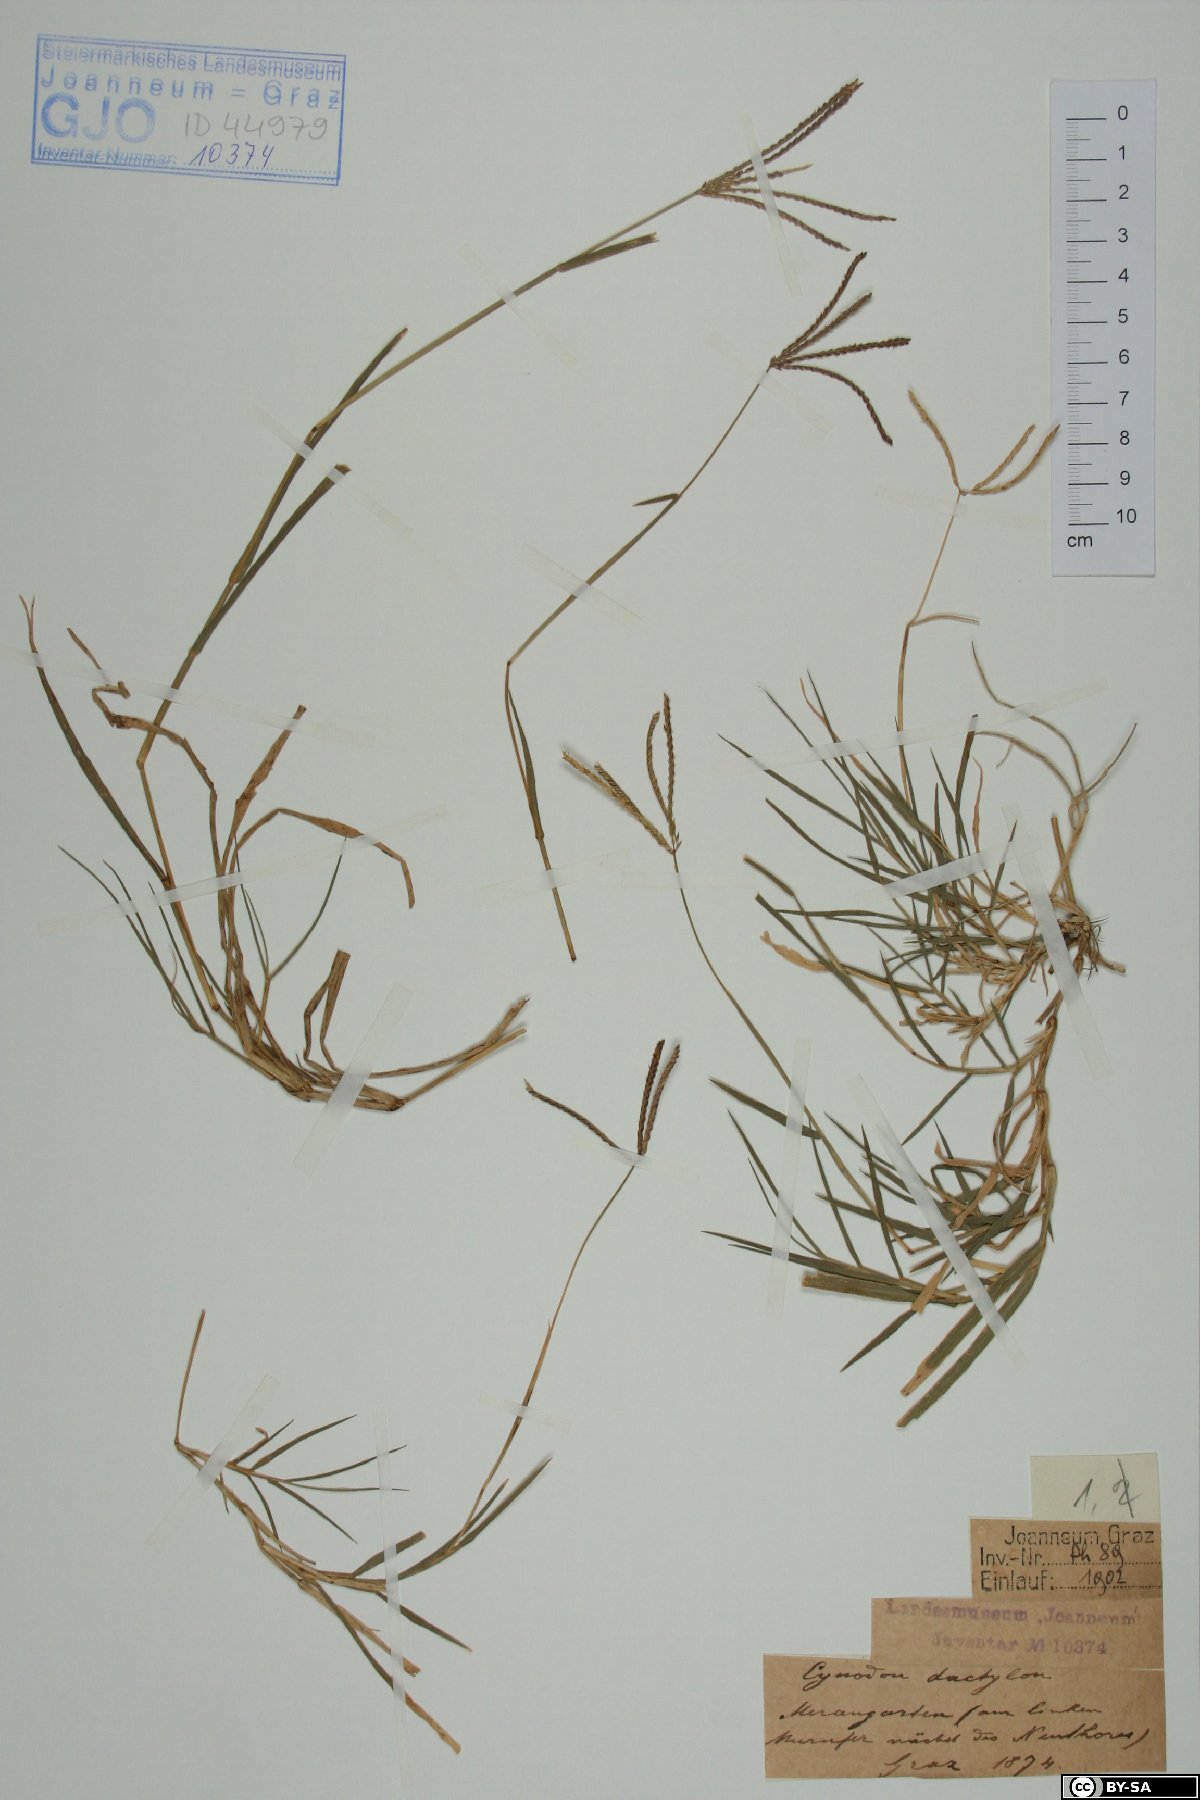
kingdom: Plantae
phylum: Tracheophyta
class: Liliopsida
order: Poales
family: Poaceae
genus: Cynodon
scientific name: Cynodon dactylon
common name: Bermuda grass
